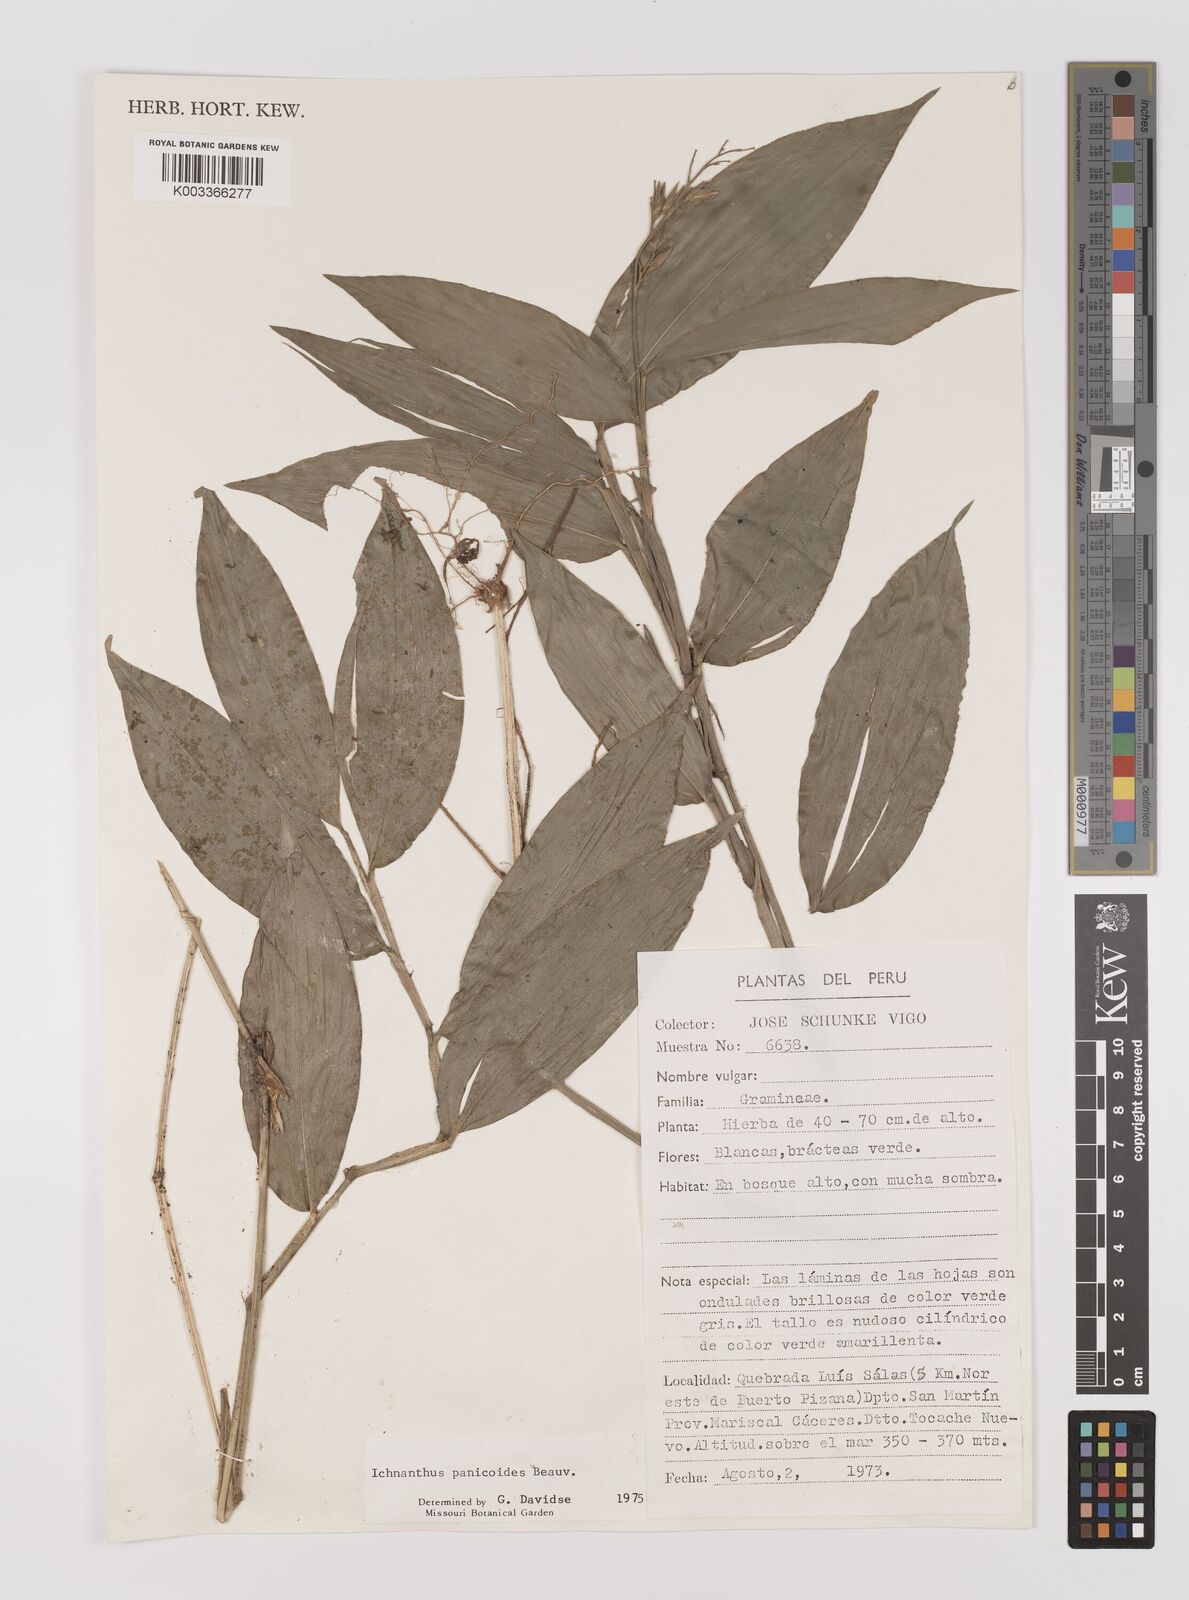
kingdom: Plantae
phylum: Tracheophyta
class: Liliopsida
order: Poales
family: Poaceae
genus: Ichnanthus
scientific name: Ichnanthus panicoides
